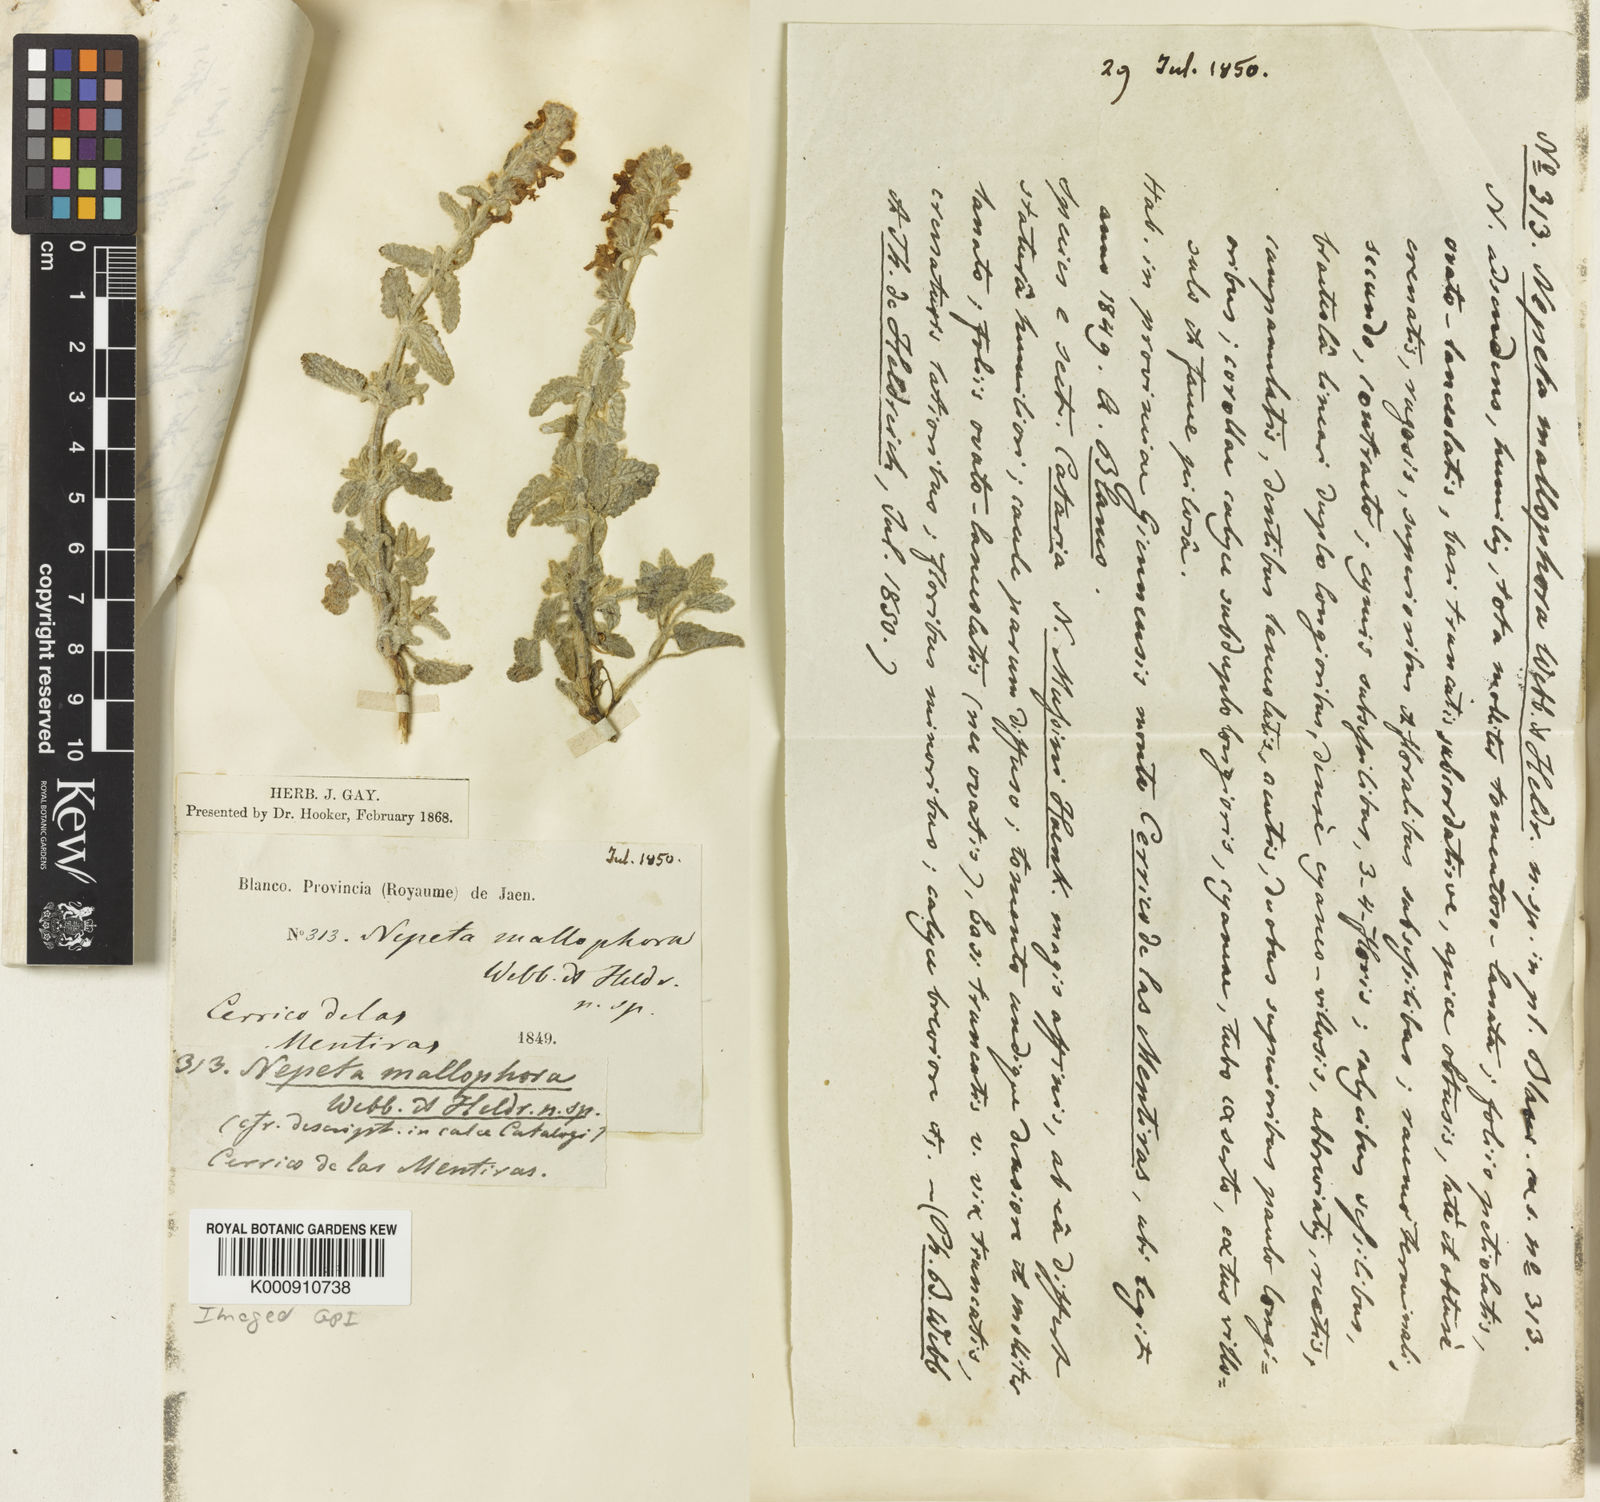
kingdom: Plantae
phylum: Tracheophyta
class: Magnoliopsida
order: Lamiales
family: Lamiaceae
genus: Nepeta
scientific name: Nepeta nepetella
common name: Lesser catmint
